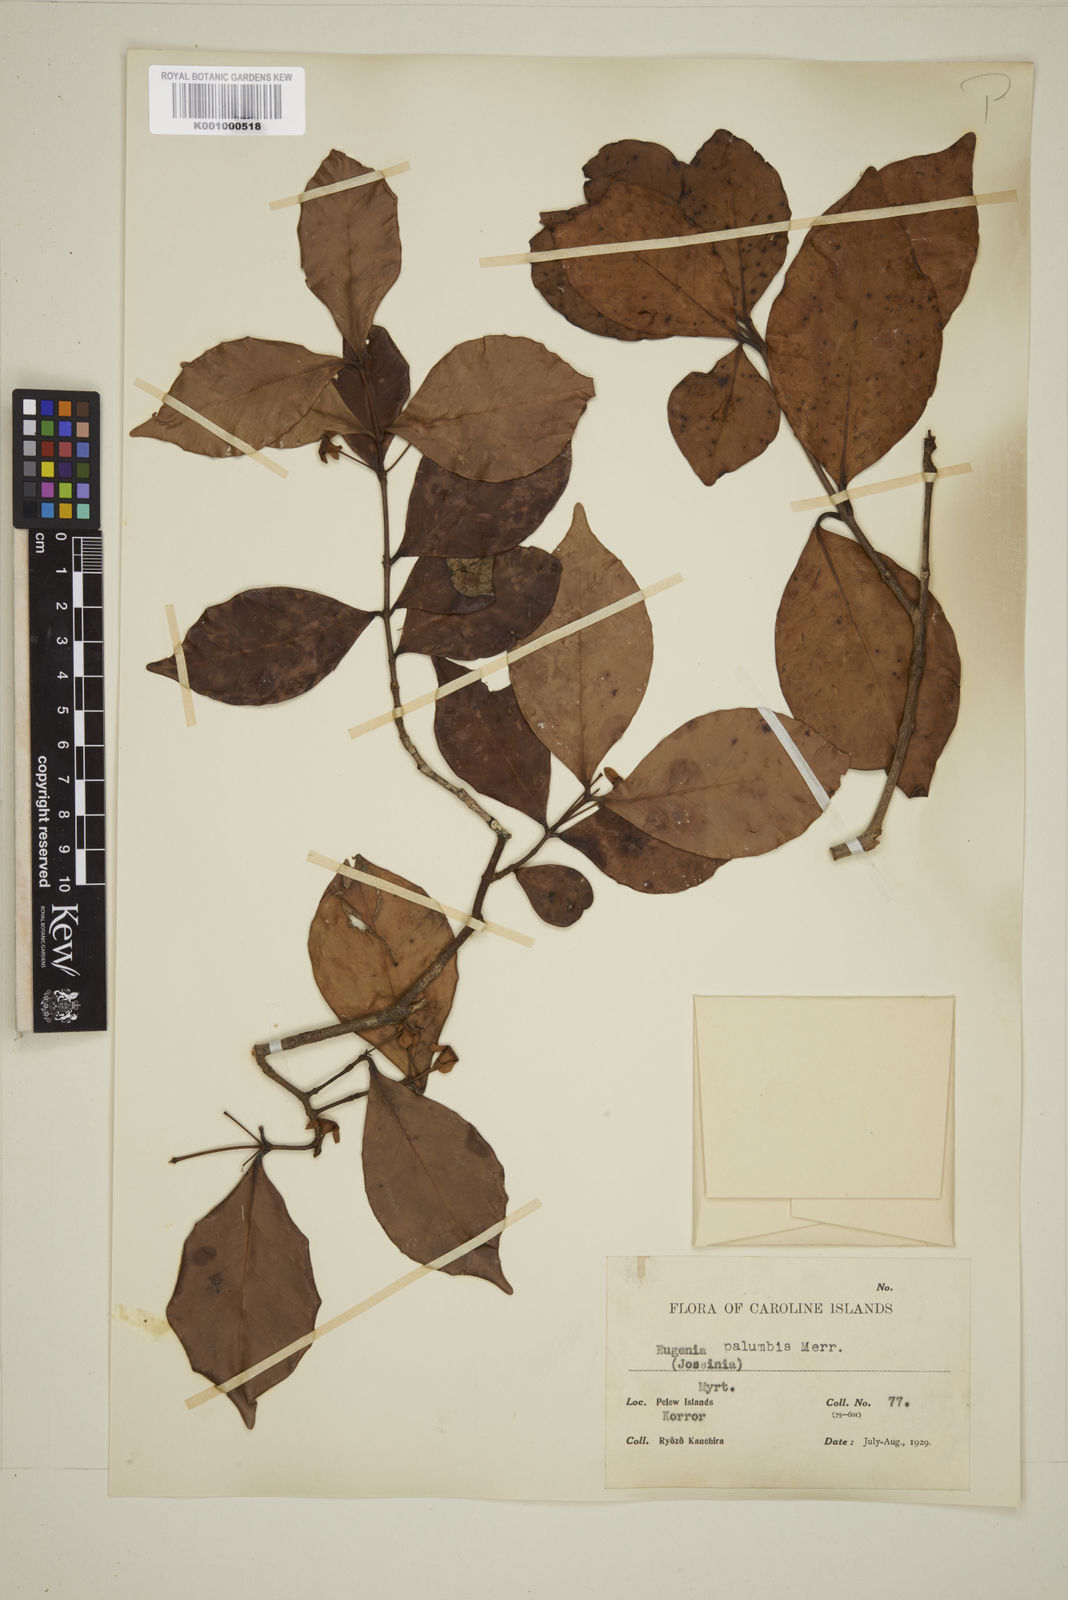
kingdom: Plantae
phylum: Tracheophyta
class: Magnoliopsida
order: Myrtales
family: Myrtaceae
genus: Eugenia
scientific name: Eugenia reinwardtiana
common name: Cedar bay-cherry
